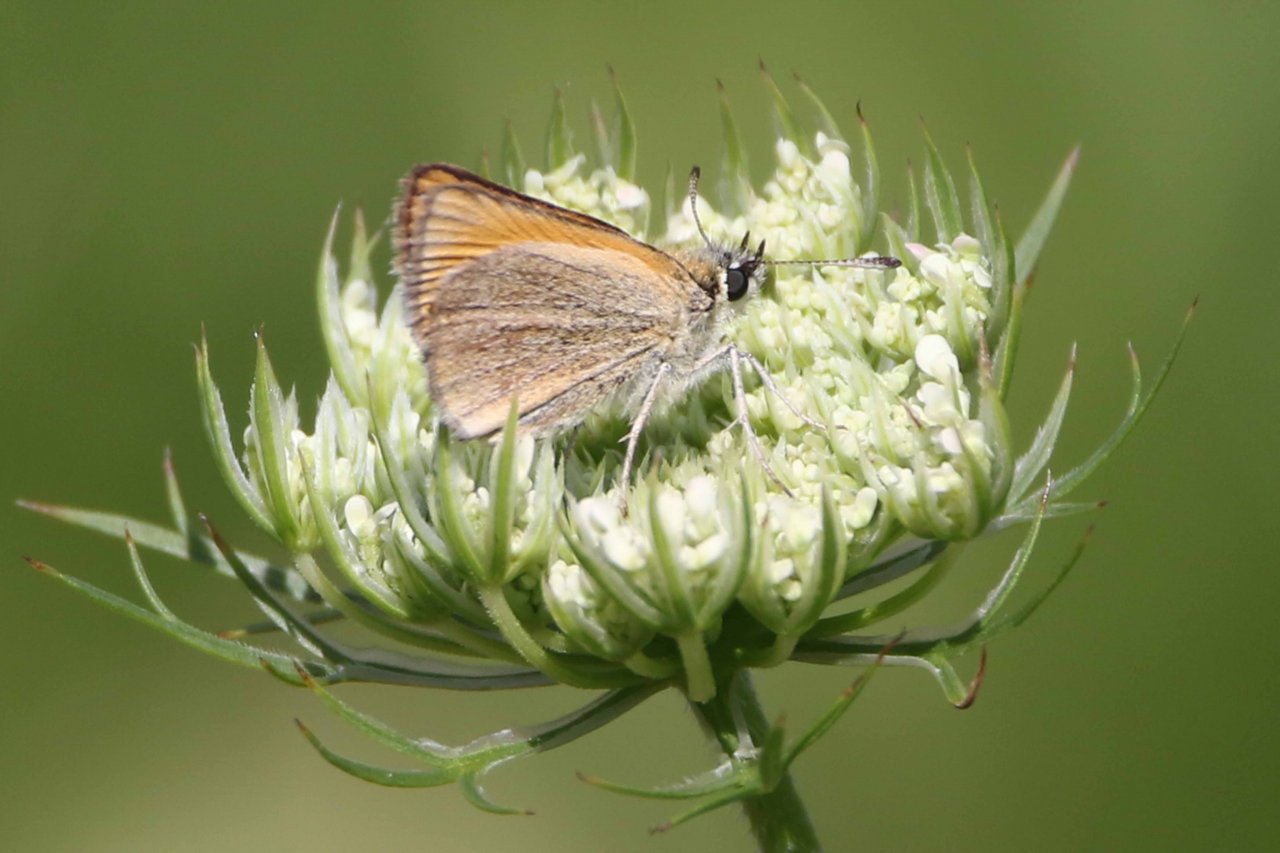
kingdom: Animalia
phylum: Arthropoda
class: Insecta
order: Lepidoptera
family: Hesperiidae
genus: Thymelicus
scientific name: Thymelicus lineola
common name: European Skipper
